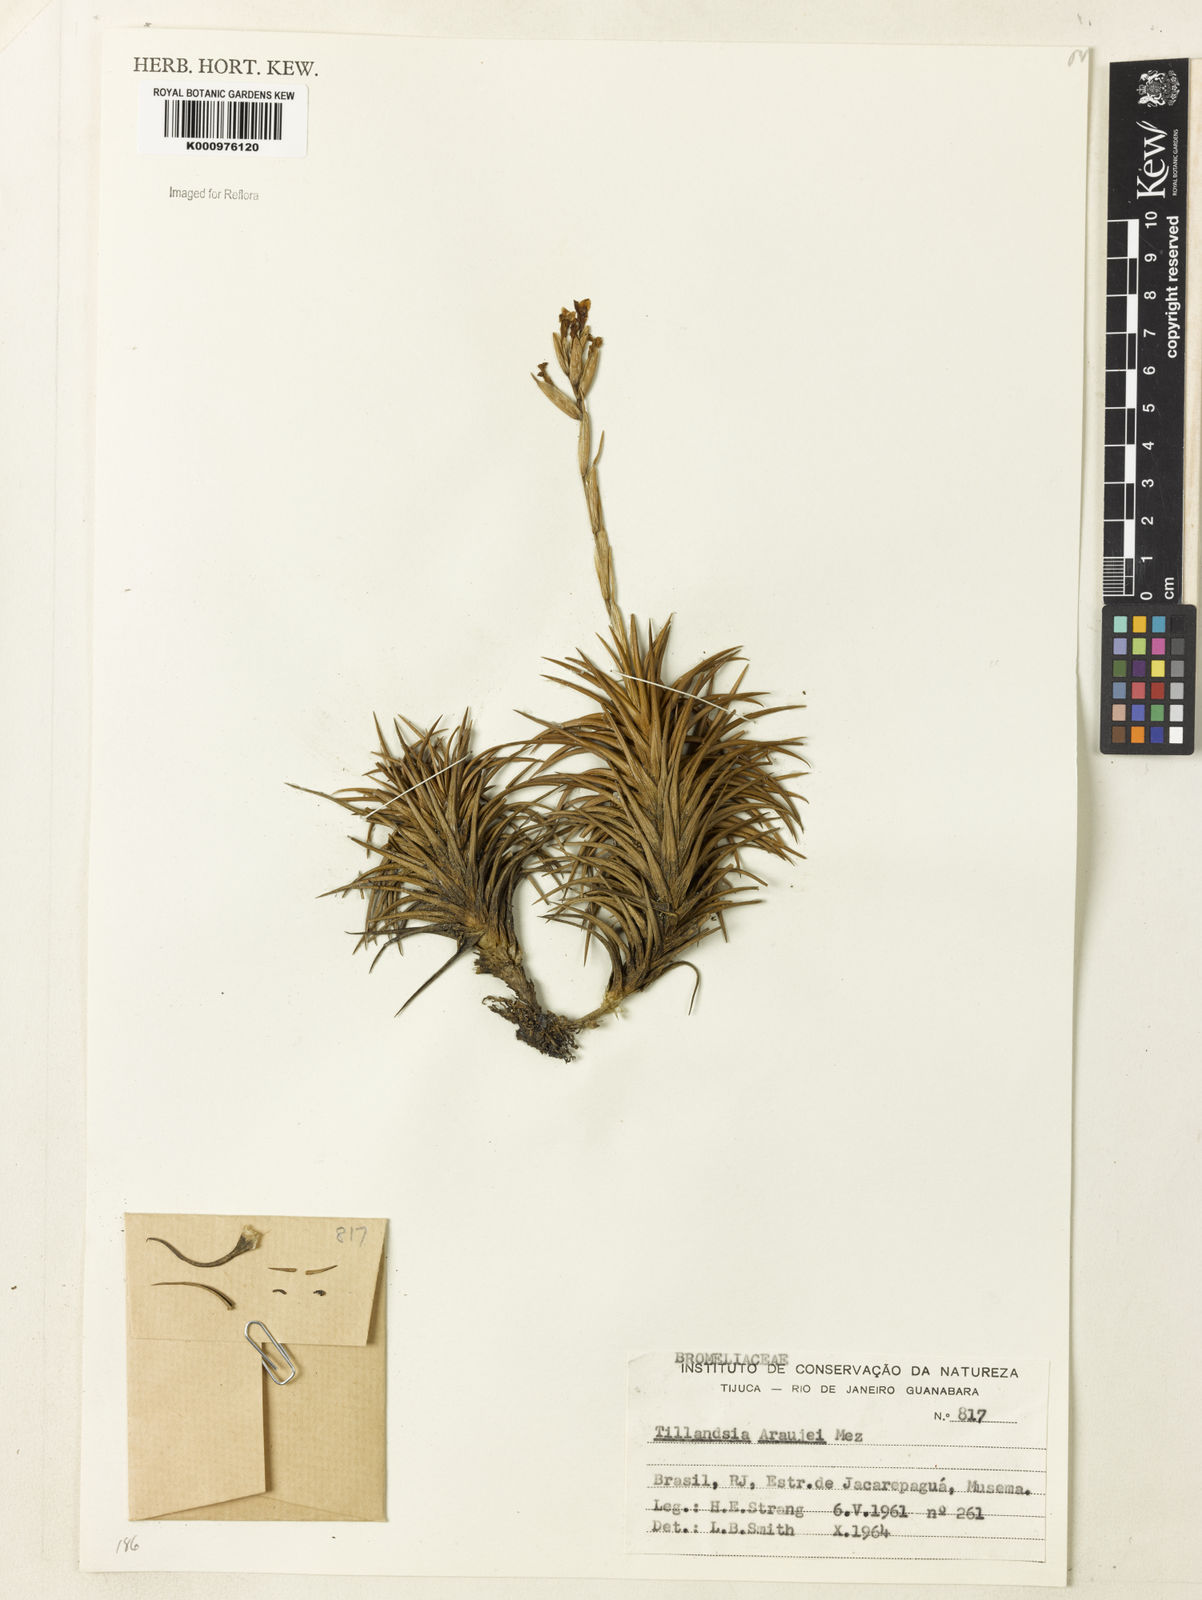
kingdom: Plantae
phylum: Tracheophyta
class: Liliopsida
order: Poales
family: Bromeliaceae
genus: Tillandsia
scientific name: Tillandsia araujei
